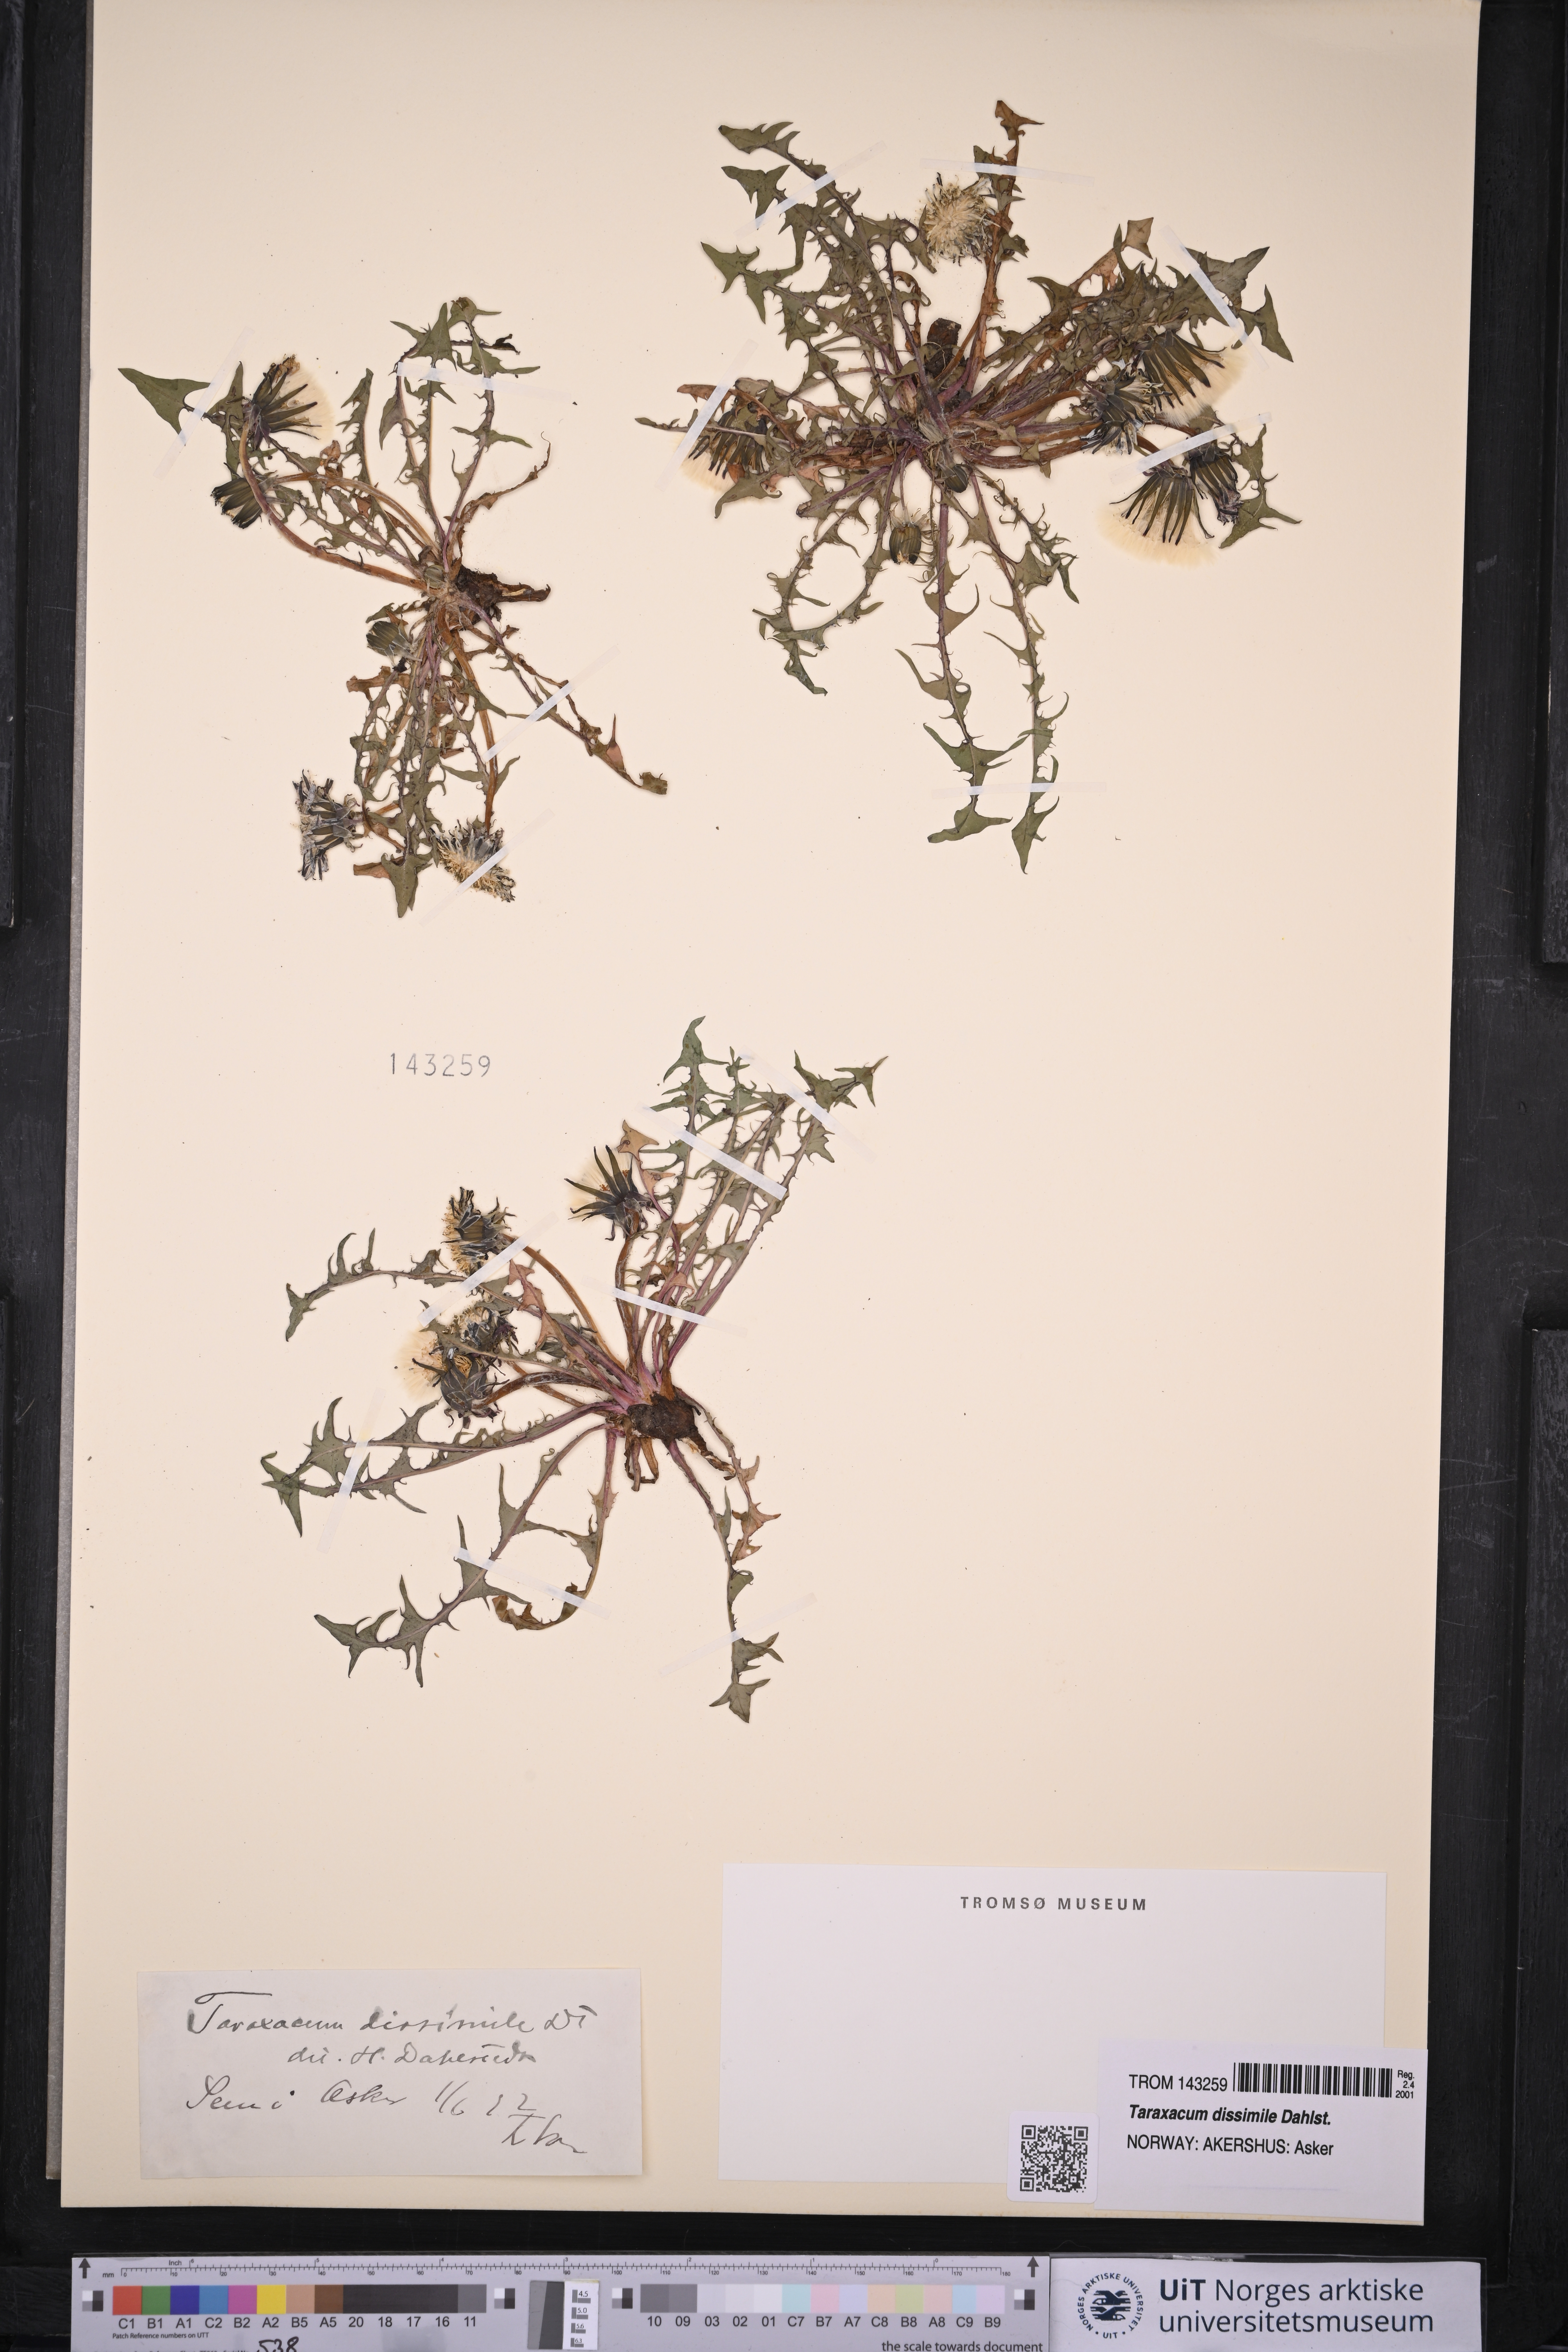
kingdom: Plantae
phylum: Tracheophyta
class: Magnoliopsida
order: Asterales
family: Asteraceae
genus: Taraxacum
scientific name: Taraxacum dissimile
